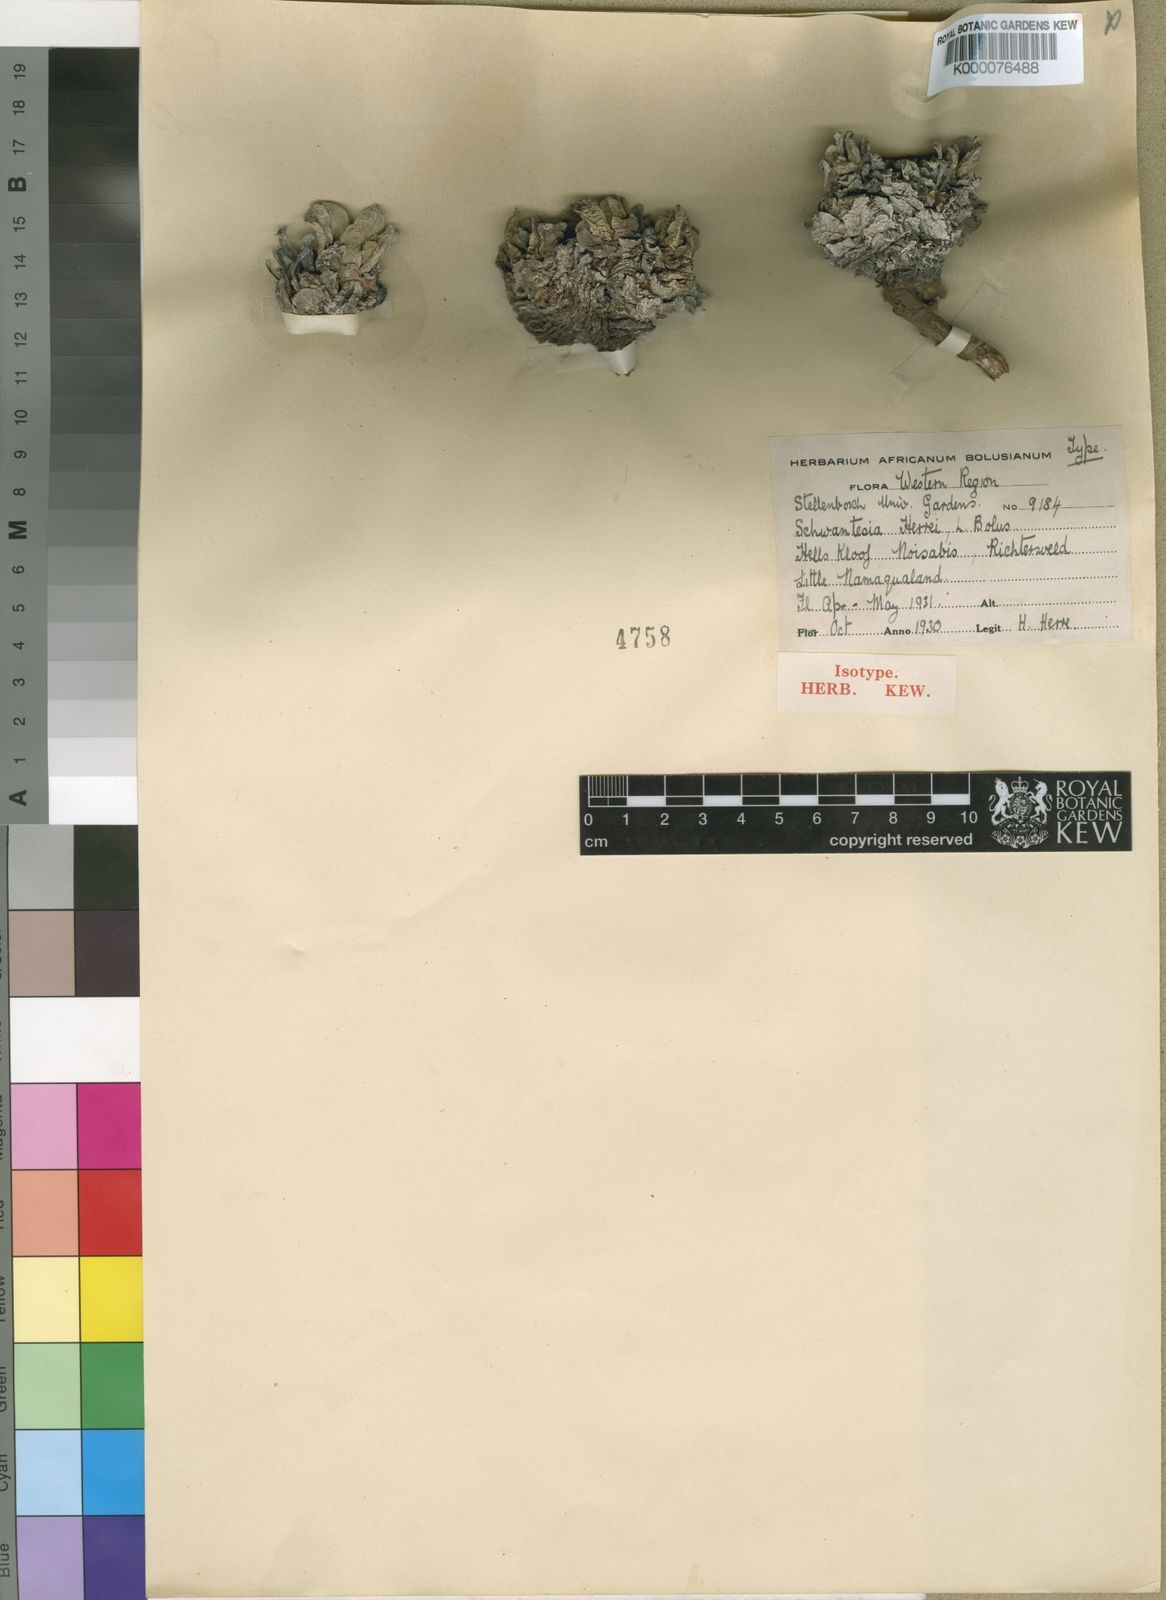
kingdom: Plantae
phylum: Tracheophyta
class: Magnoliopsida
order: Caryophyllales
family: Aizoaceae
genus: Schwantesia
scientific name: Schwantesia herrei
